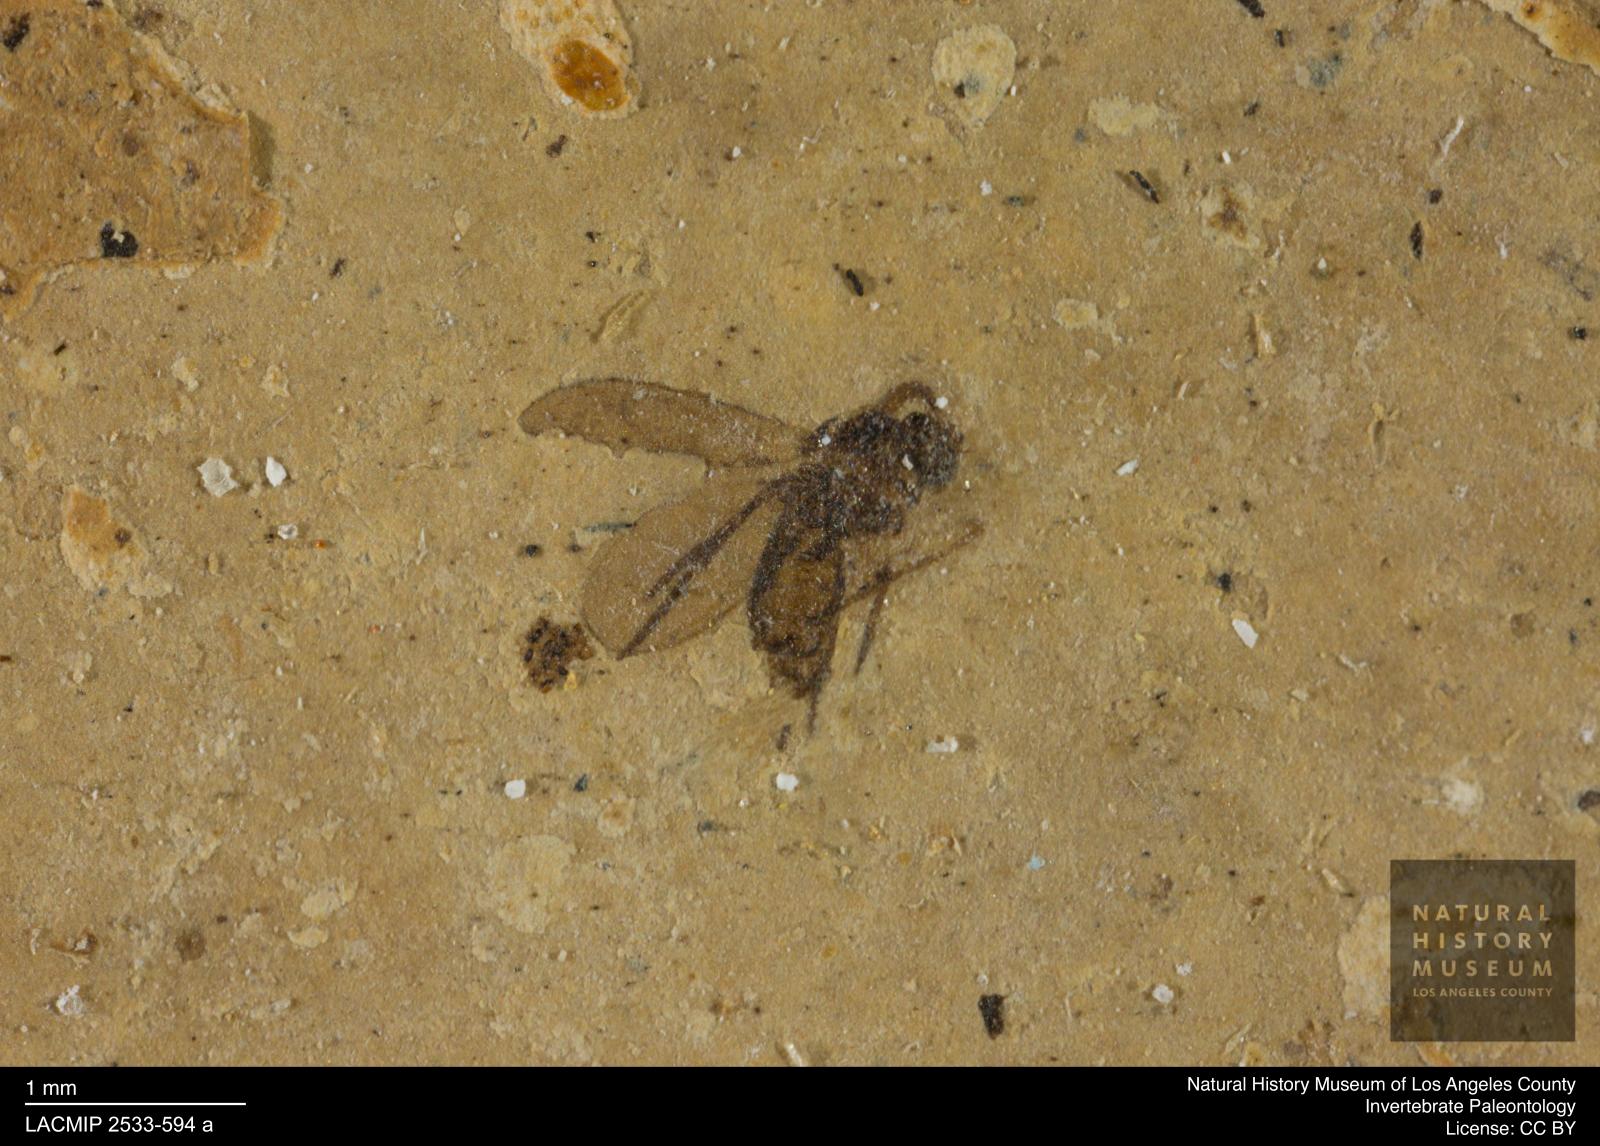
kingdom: Animalia
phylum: Arthropoda
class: Insecta
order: Diptera
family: Sciaridae
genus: Sciara
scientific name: Sciara minuscula
